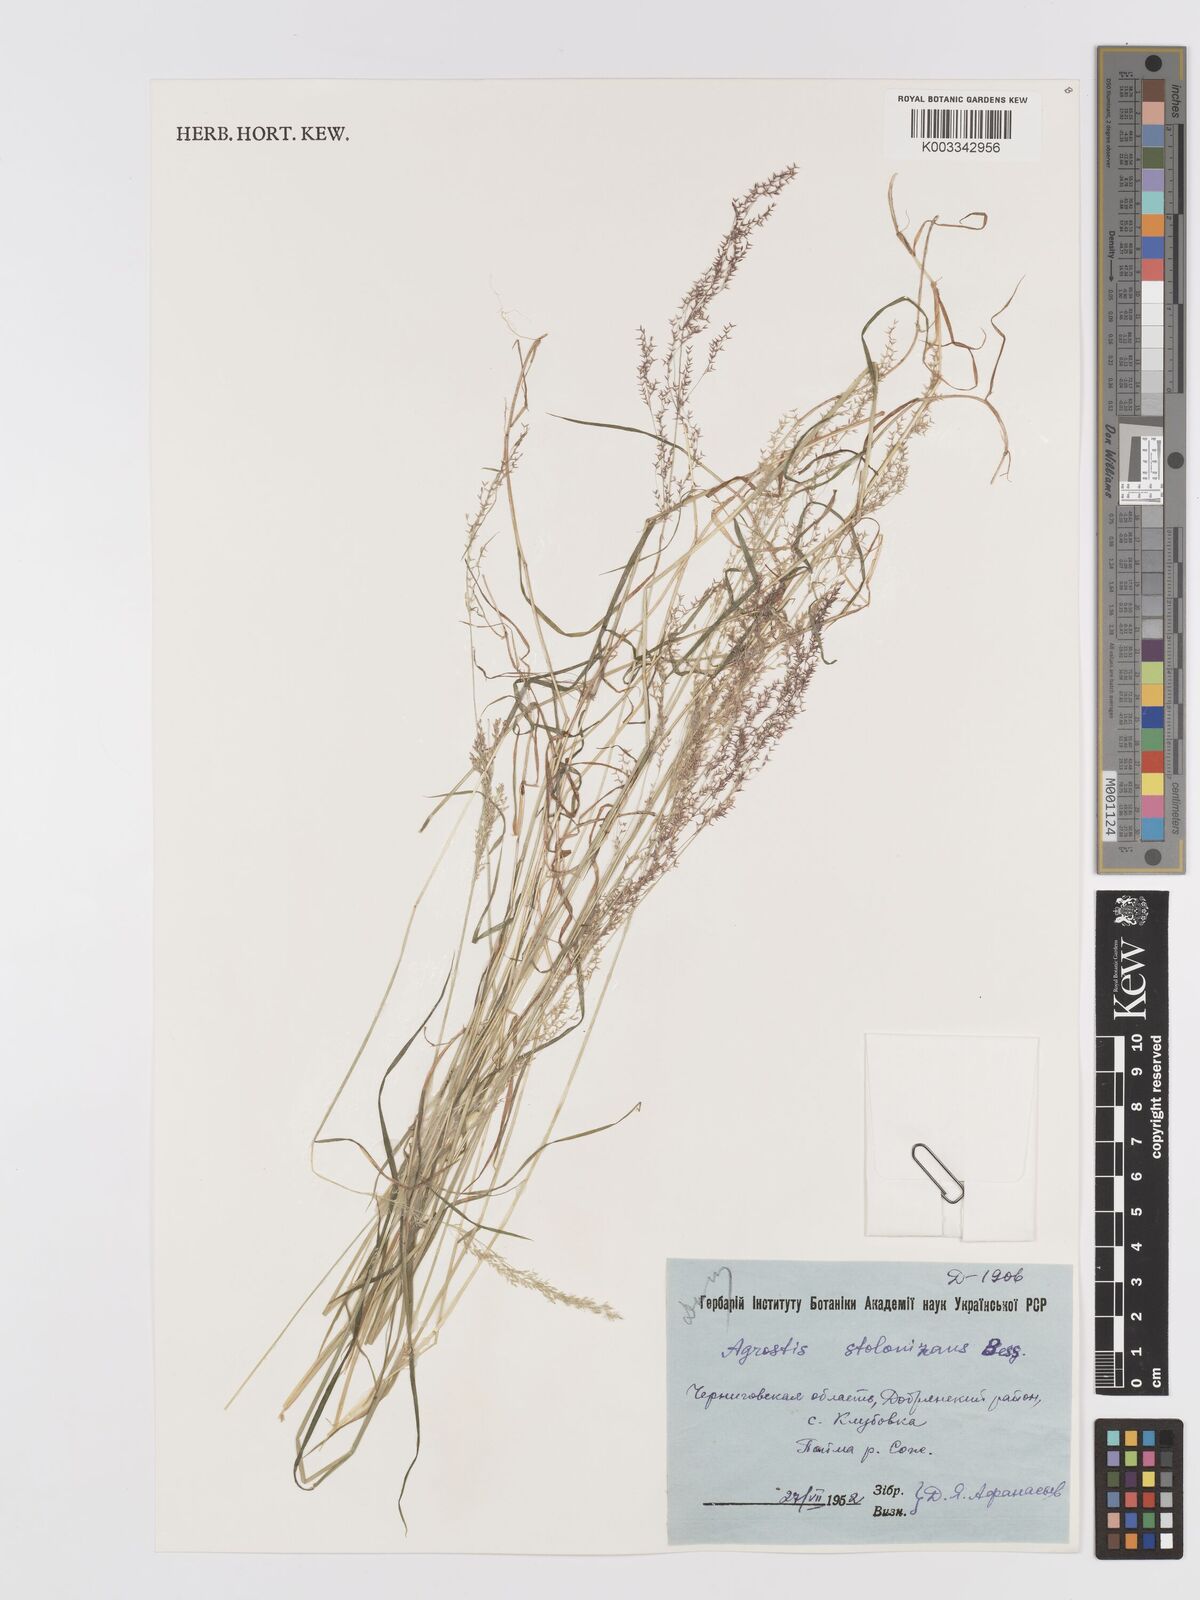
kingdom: Plantae
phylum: Tracheophyta
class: Liliopsida
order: Poales
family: Poaceae
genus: Agrostis
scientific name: Agrostis stolonifera
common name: Creeping bentgrass
